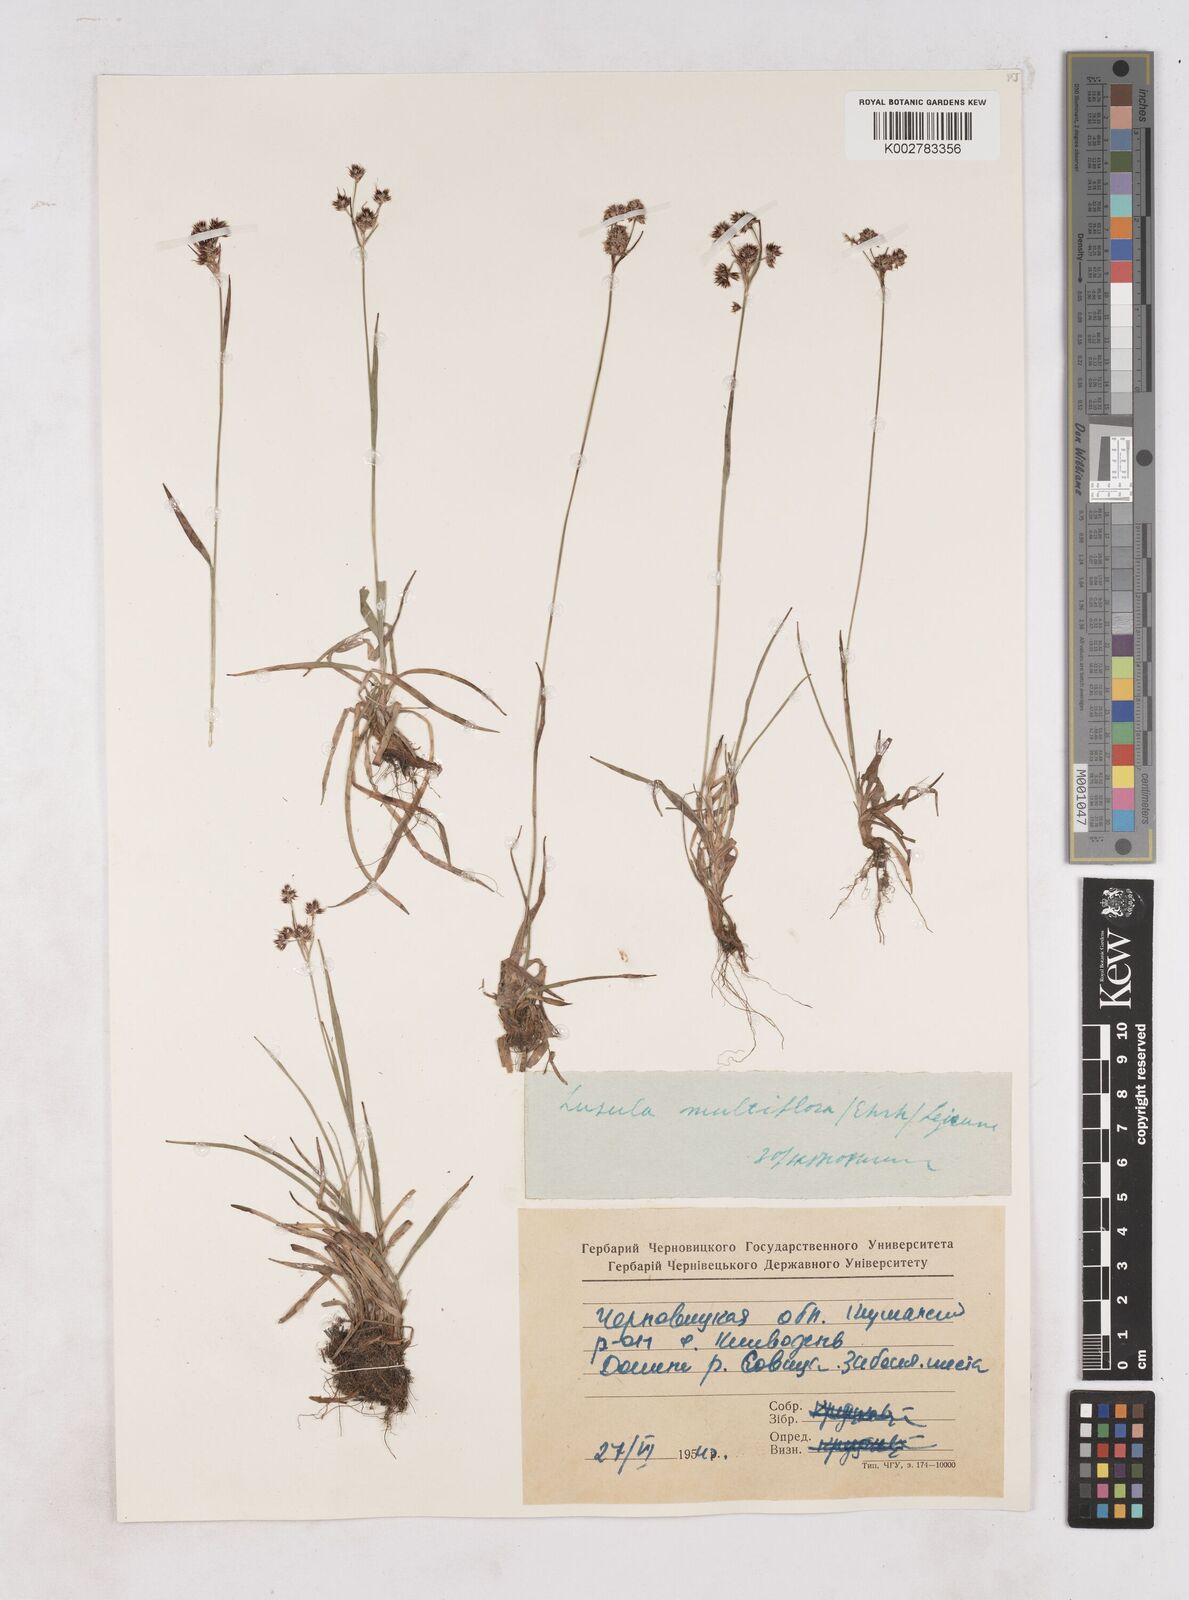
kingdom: Plantae
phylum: Tracheophyta
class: Liliopsida
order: Poales
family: Juncaceae
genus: Luzula
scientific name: Luzula multiflora
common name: Heath wood-rush
